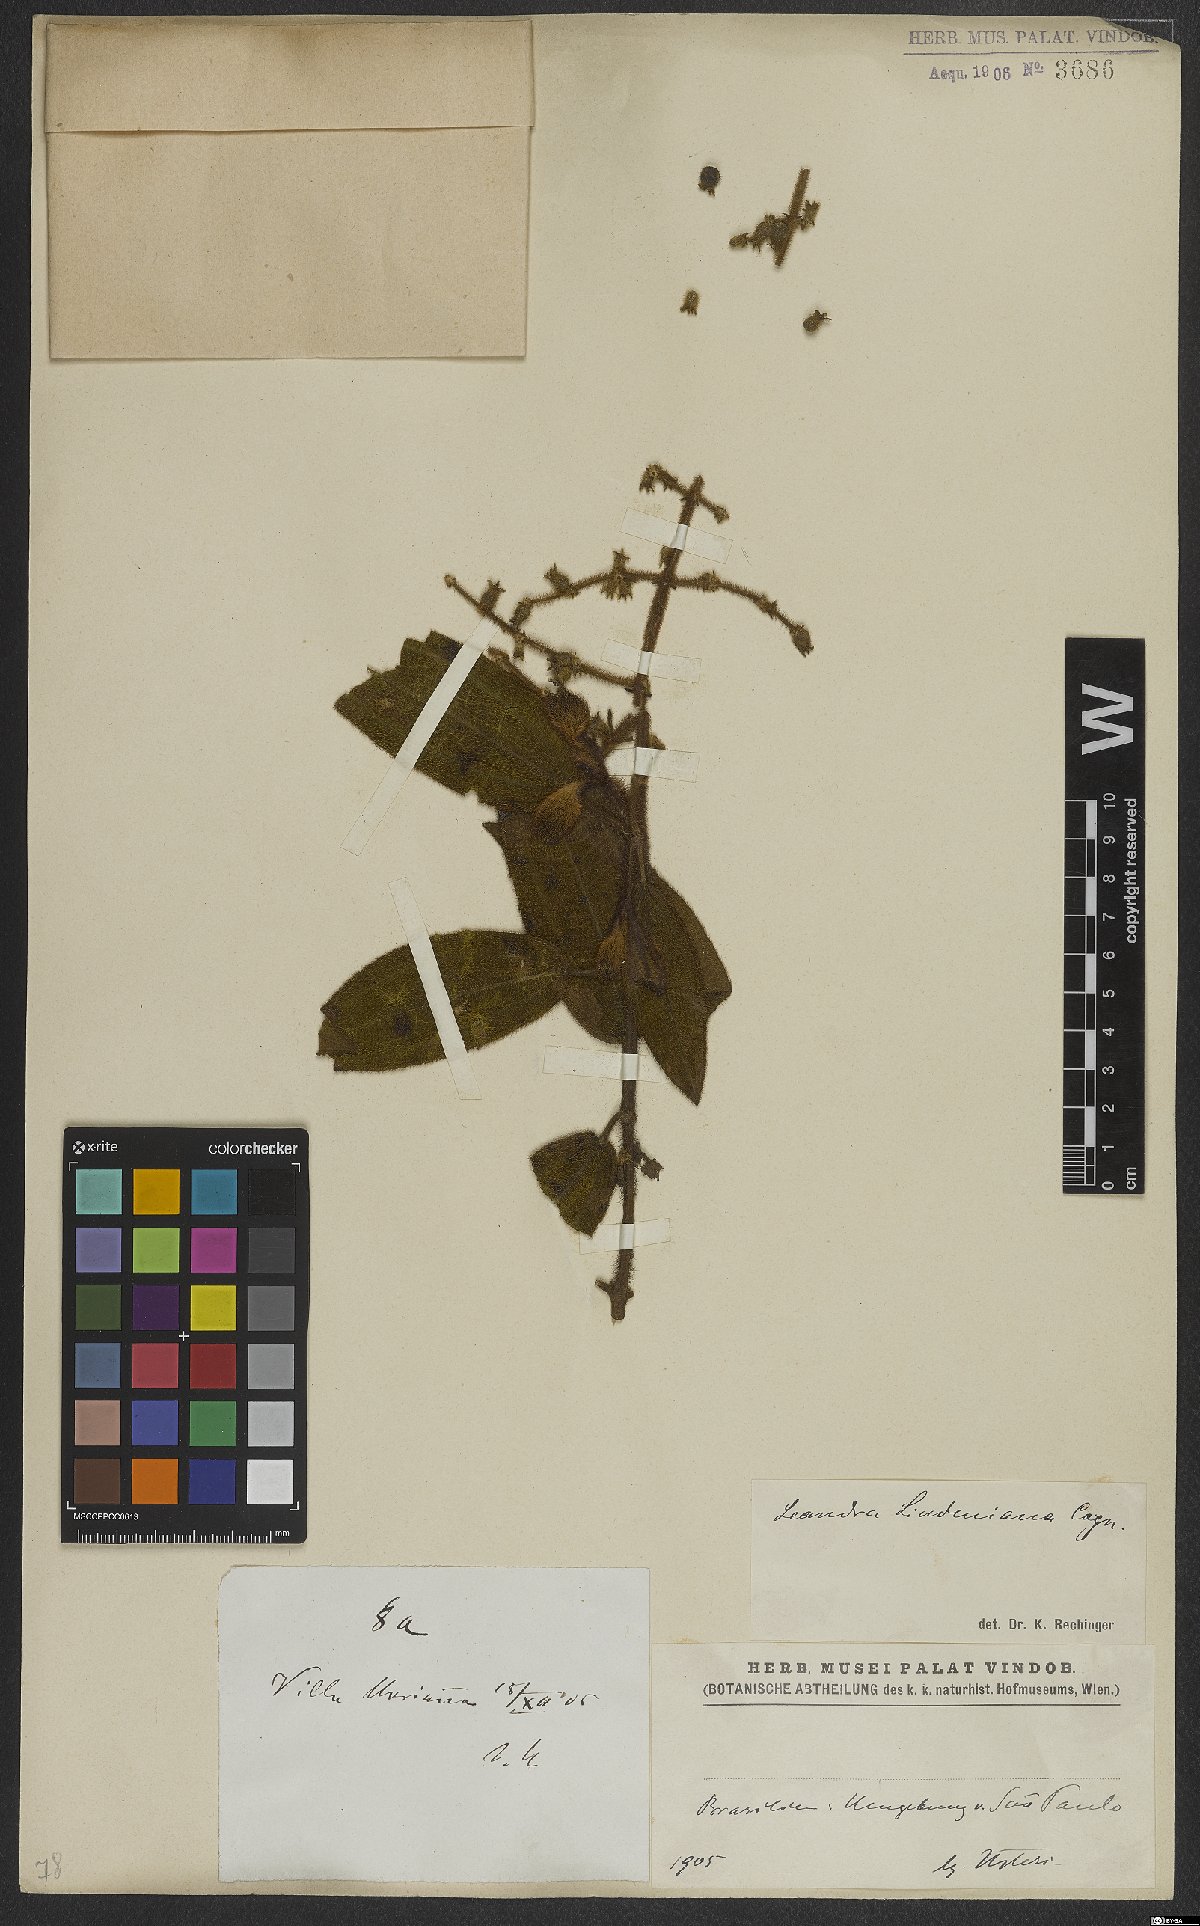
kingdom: Plantae
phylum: Tracheophyta
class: Magnoliopsida
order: Myrtales
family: Melastomataceae
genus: Miconia
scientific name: Miconia lealindeniana
